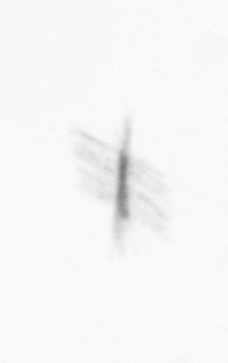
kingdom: Chromista
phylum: Ochrophyta
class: Bacillariophyceae
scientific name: Bacillariophyceae
